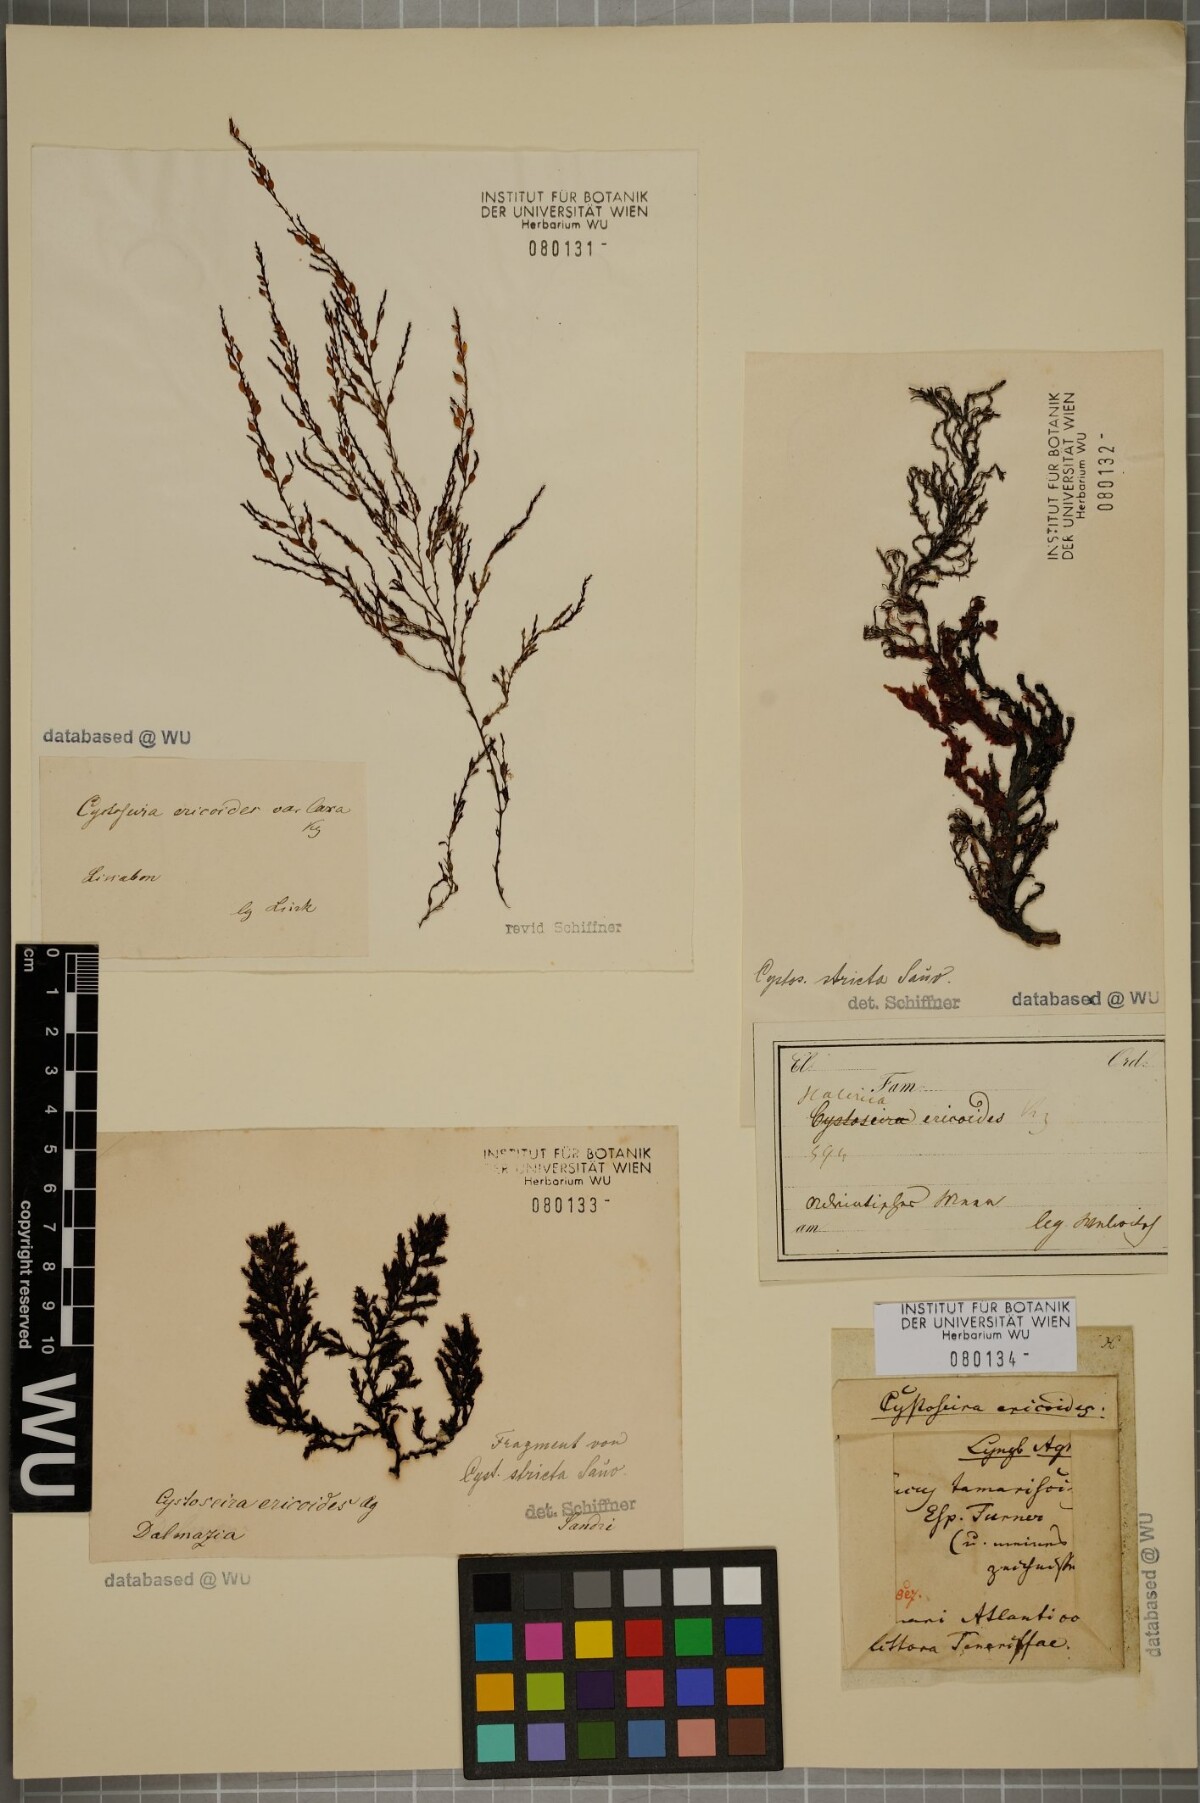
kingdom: Chromista
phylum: Ochrophyta
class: Phaeophyceae
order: Fucales
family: Sargassaceae
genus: Cystoseira
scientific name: Cystoseira Ericaria selaginoides
